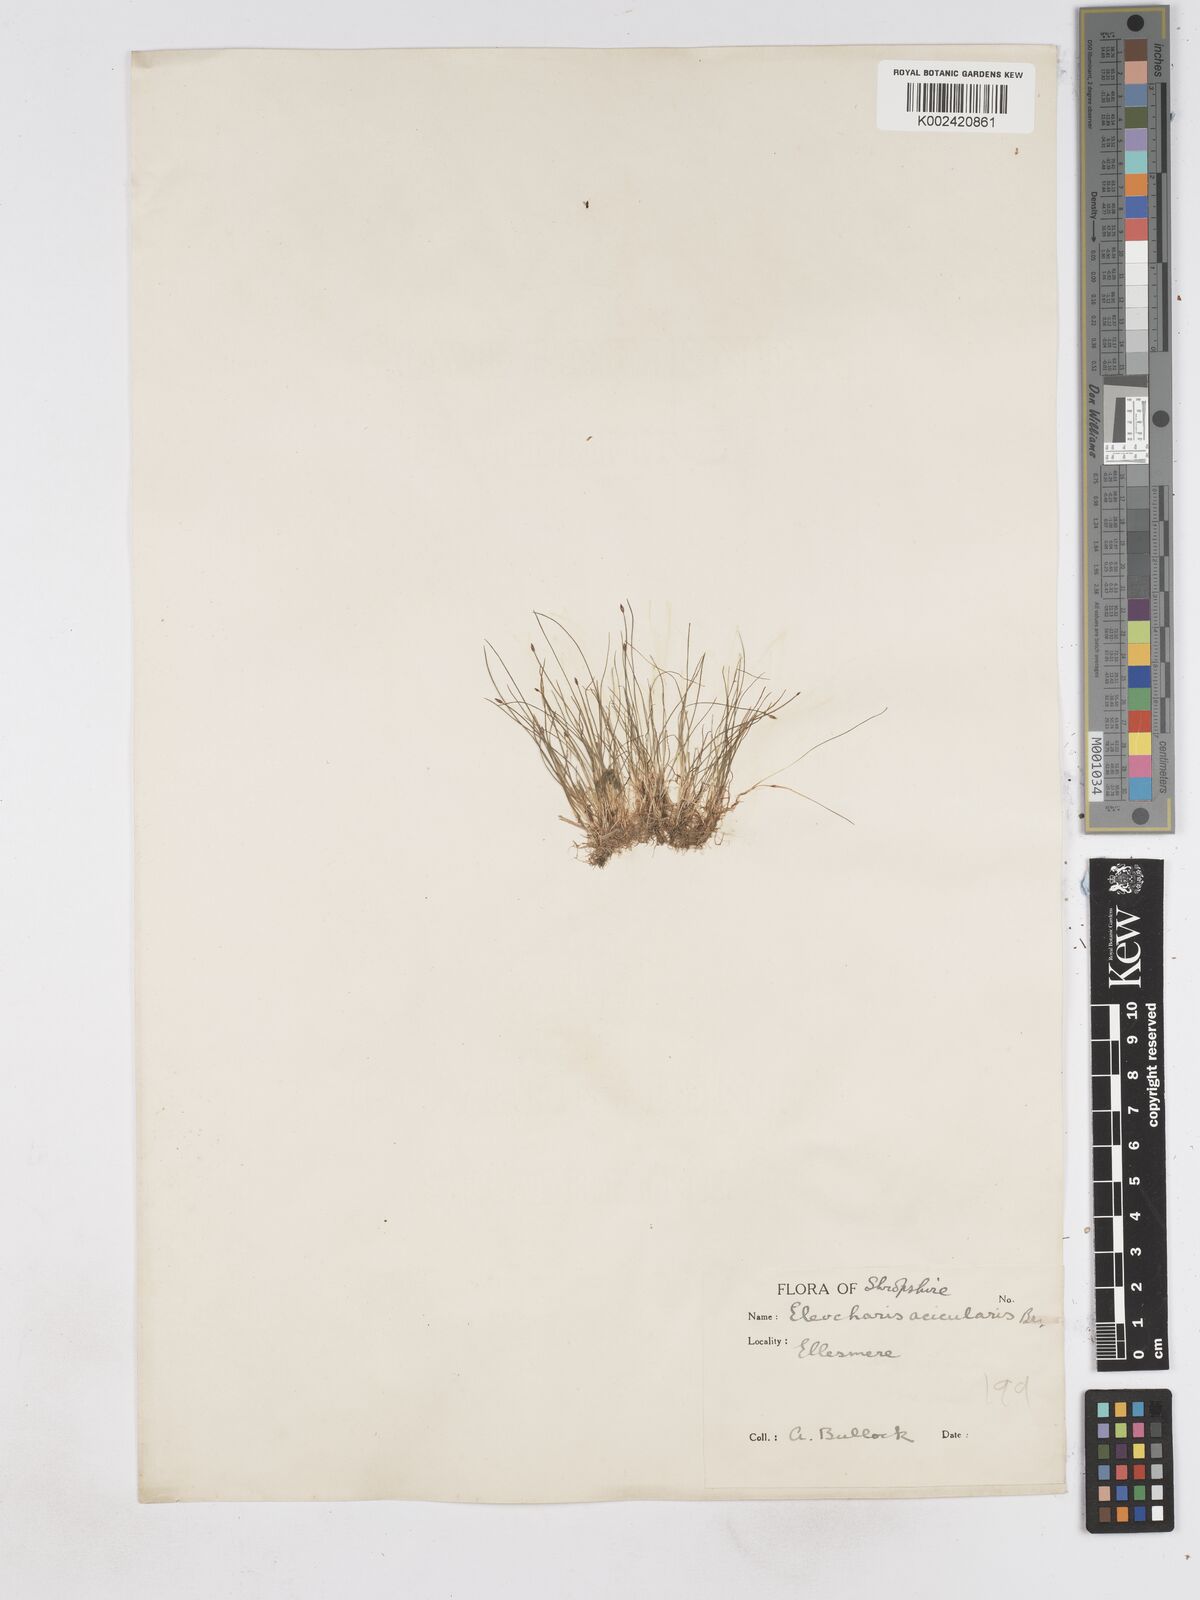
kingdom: Plantae
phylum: Tracheophyta
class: Liliopsida
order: Poales
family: Cyperaceae
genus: Eleocharis
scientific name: Eleocharis acicularis
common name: Needle spike-rush
